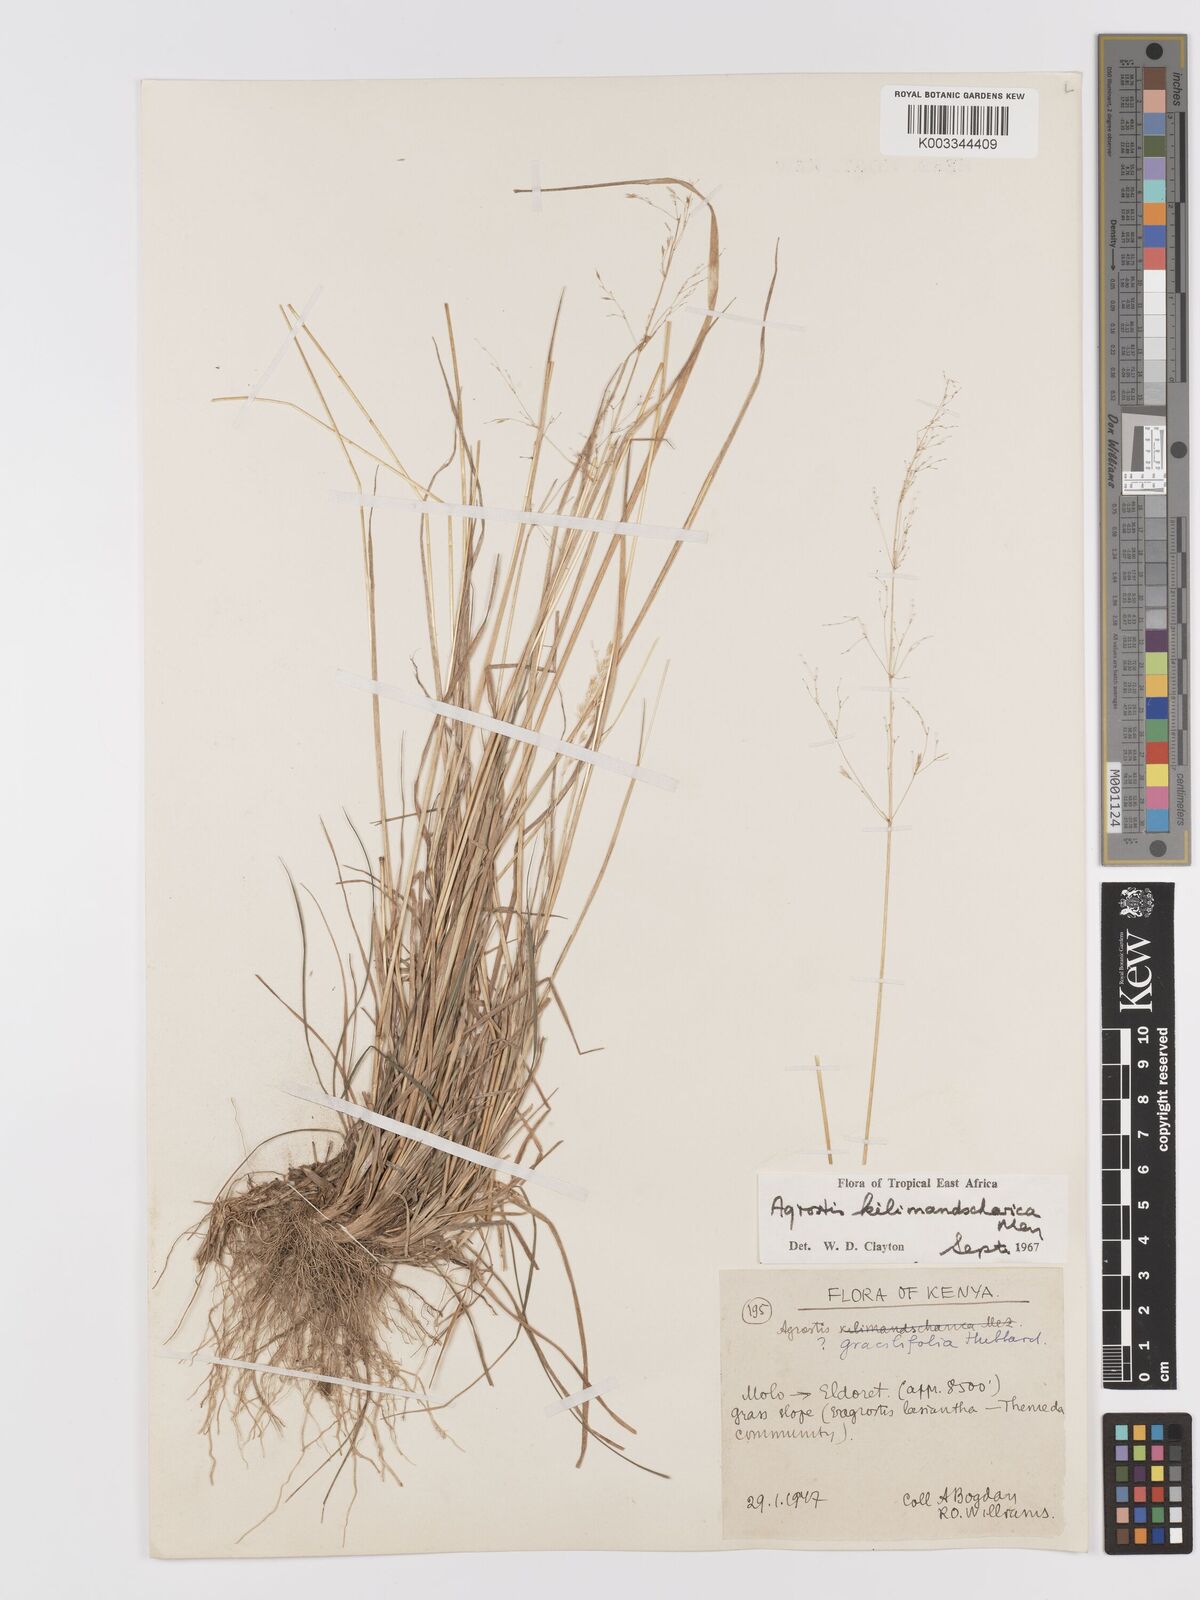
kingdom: Plantae
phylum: Tracheophyta
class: Liliopsida
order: Poales
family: Poaceae
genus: Agrostis
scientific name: Agrostis kilimandscharica
